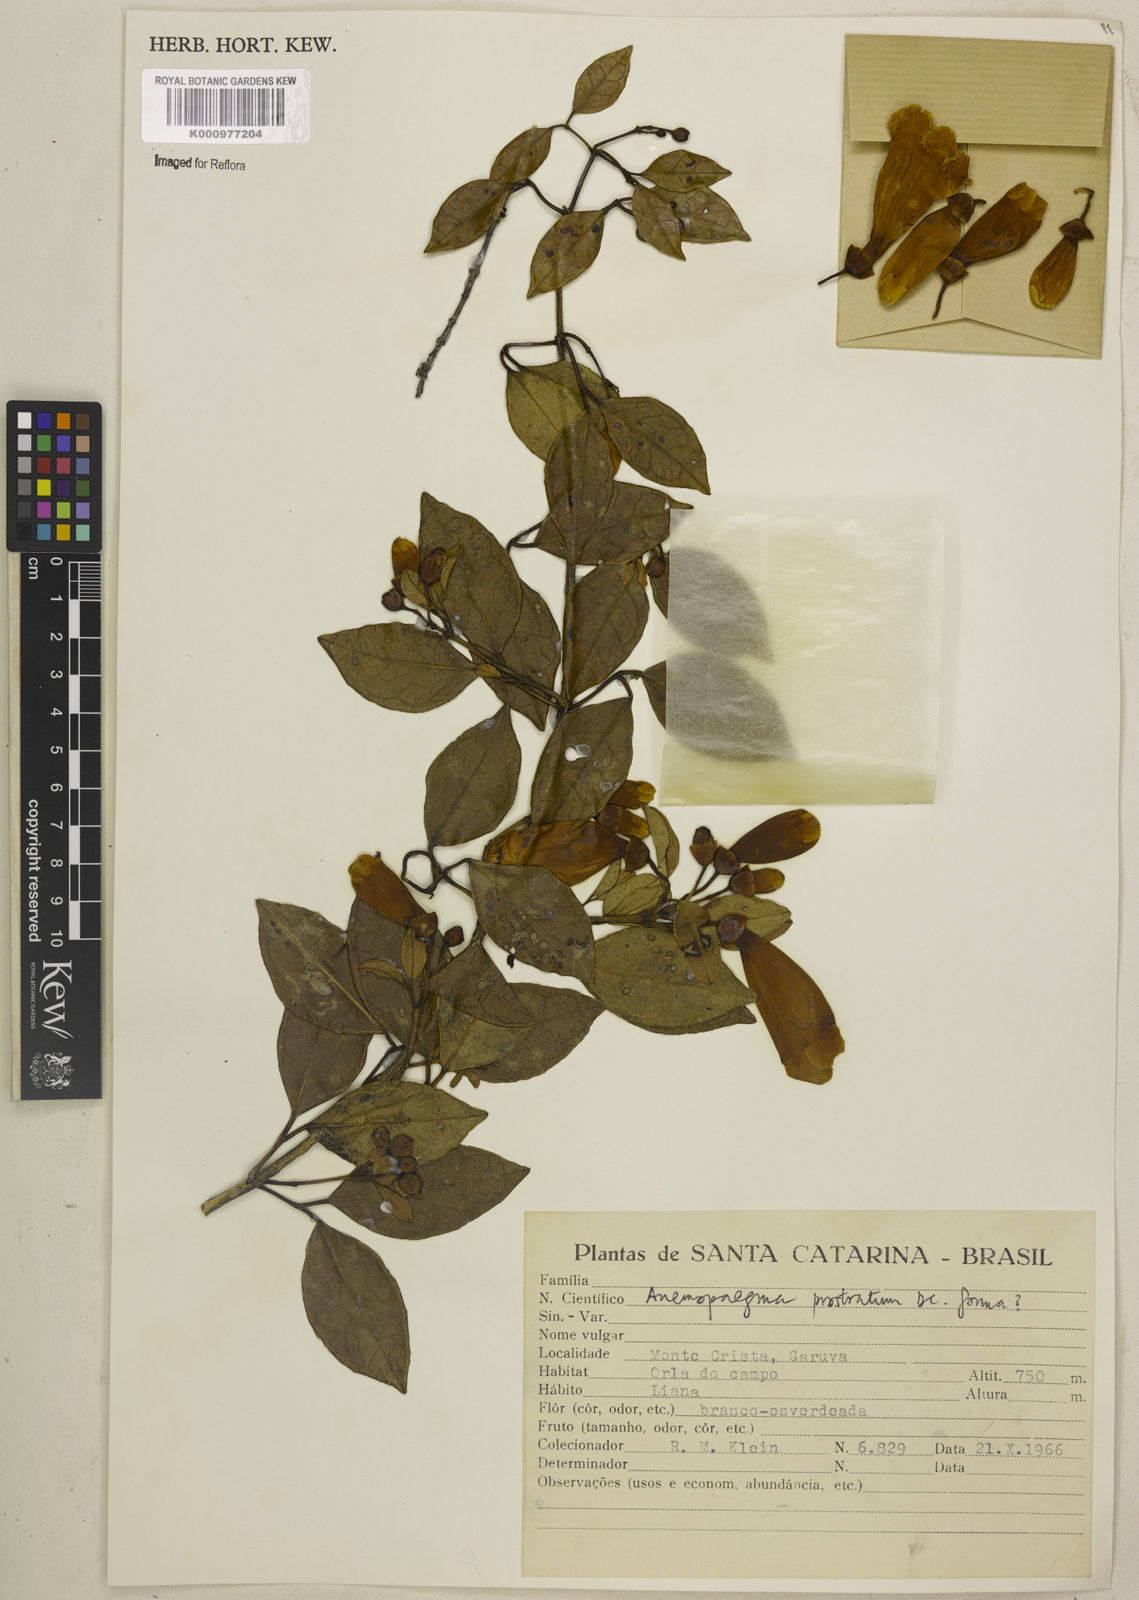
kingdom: Plantae
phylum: Tracheophyta
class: Magnoliopsida
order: Lamiales
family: Bignoniaceae
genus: Anemopaegma
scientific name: Anemopaegma nebulosum
